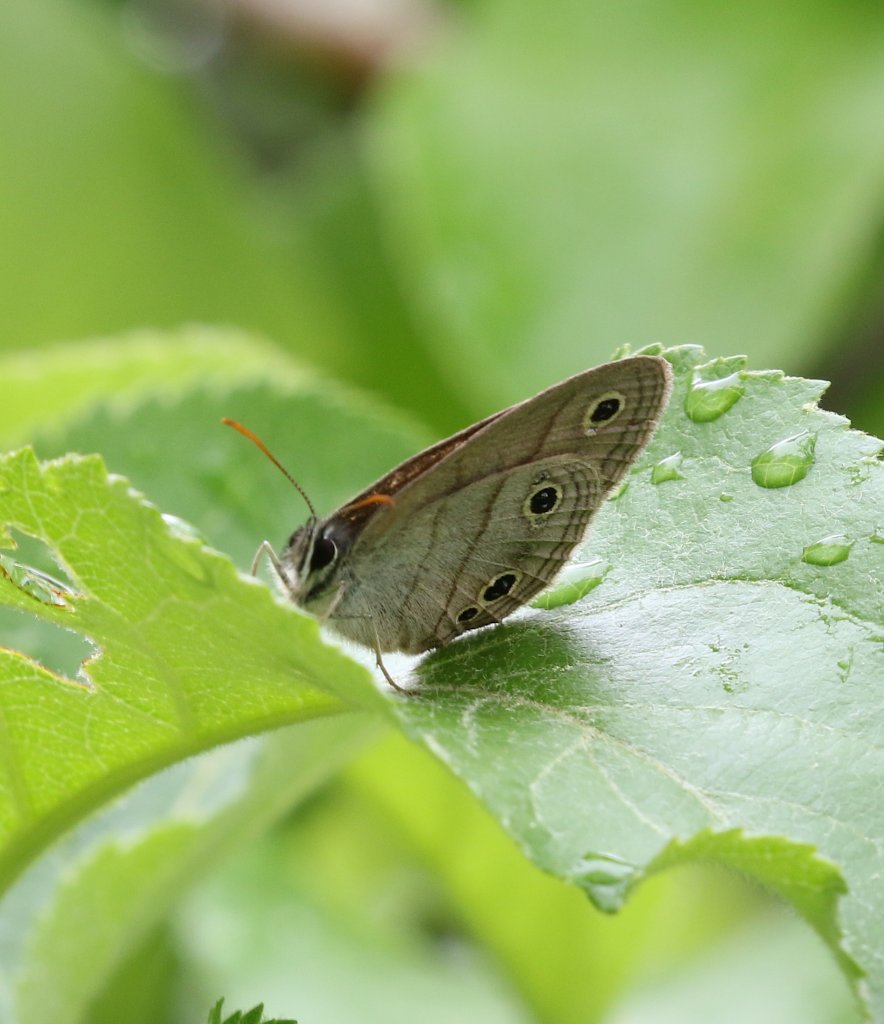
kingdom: Animalia
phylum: Arthropoda
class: Insecta
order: Lepidoptera
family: Nymphalidae
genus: Euptychia
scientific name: Euptychia cymela
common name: Little Wood Satyr
